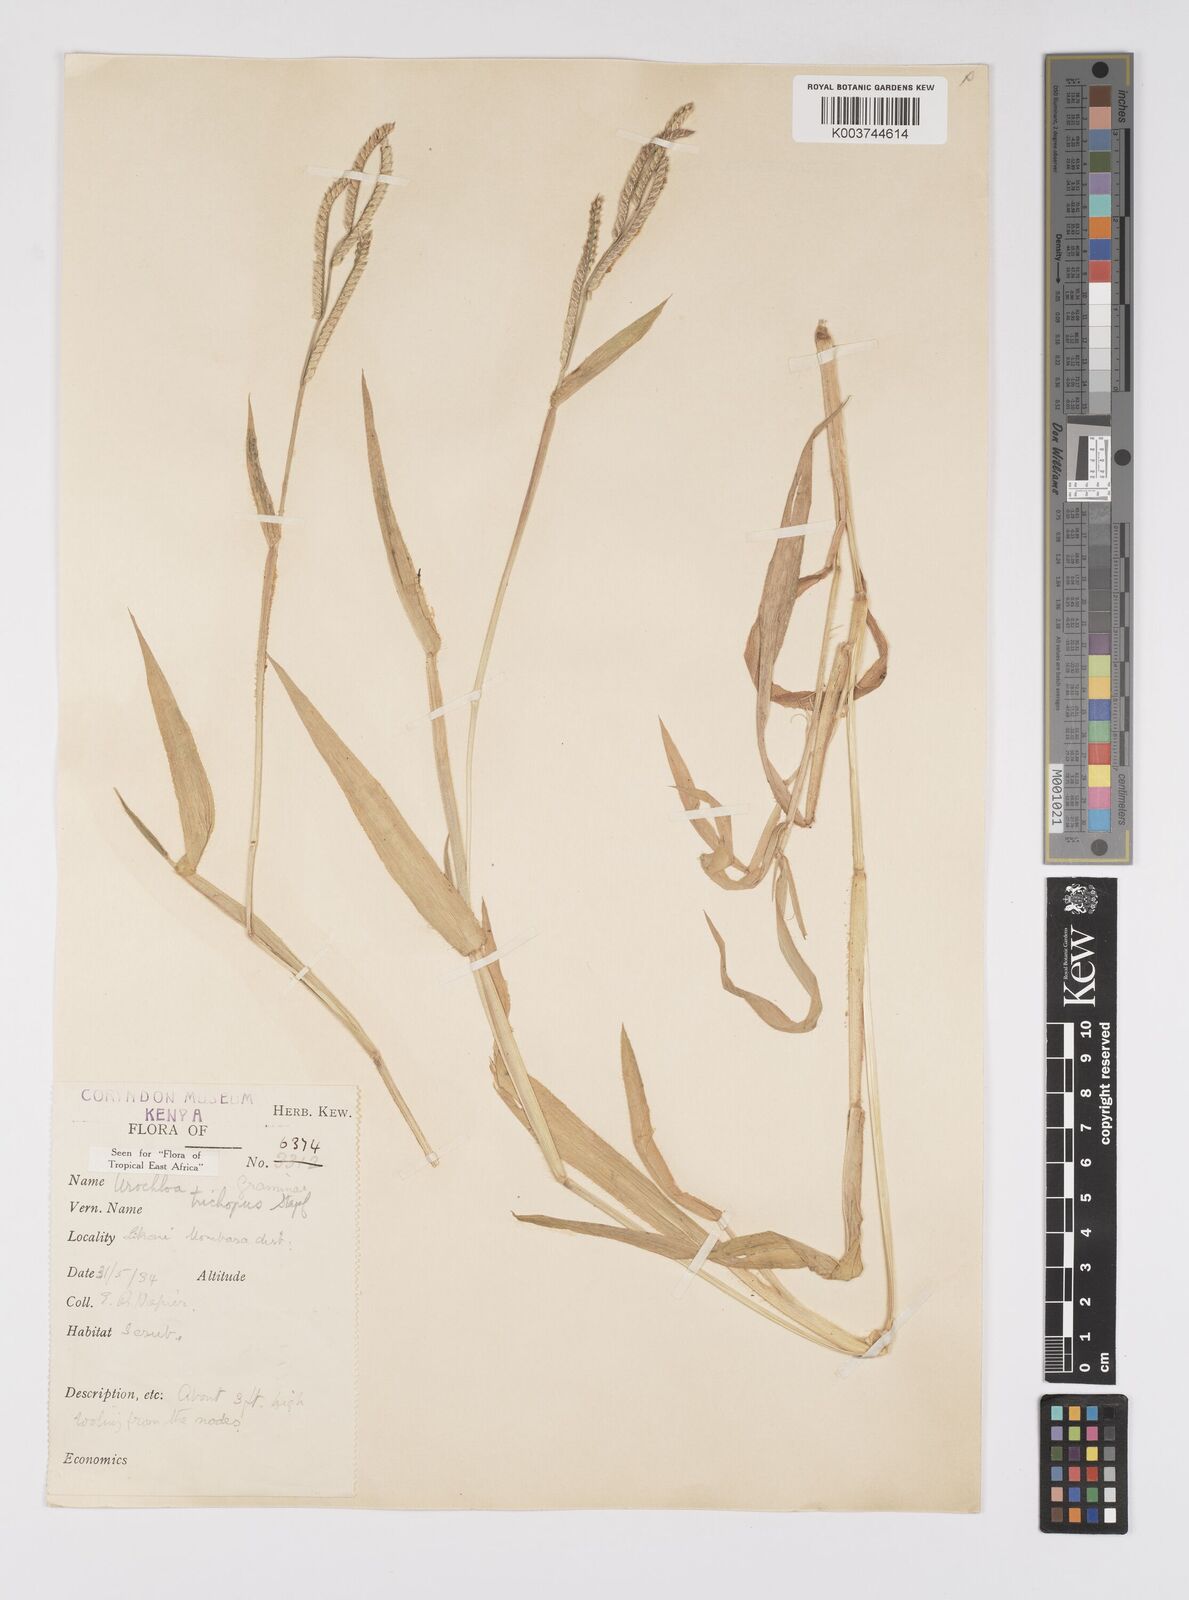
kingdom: Plantae
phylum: Tracheophyta
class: Liliopsida
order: Poales
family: Poaceae
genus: Urochloa
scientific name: Urochloa trichopus
